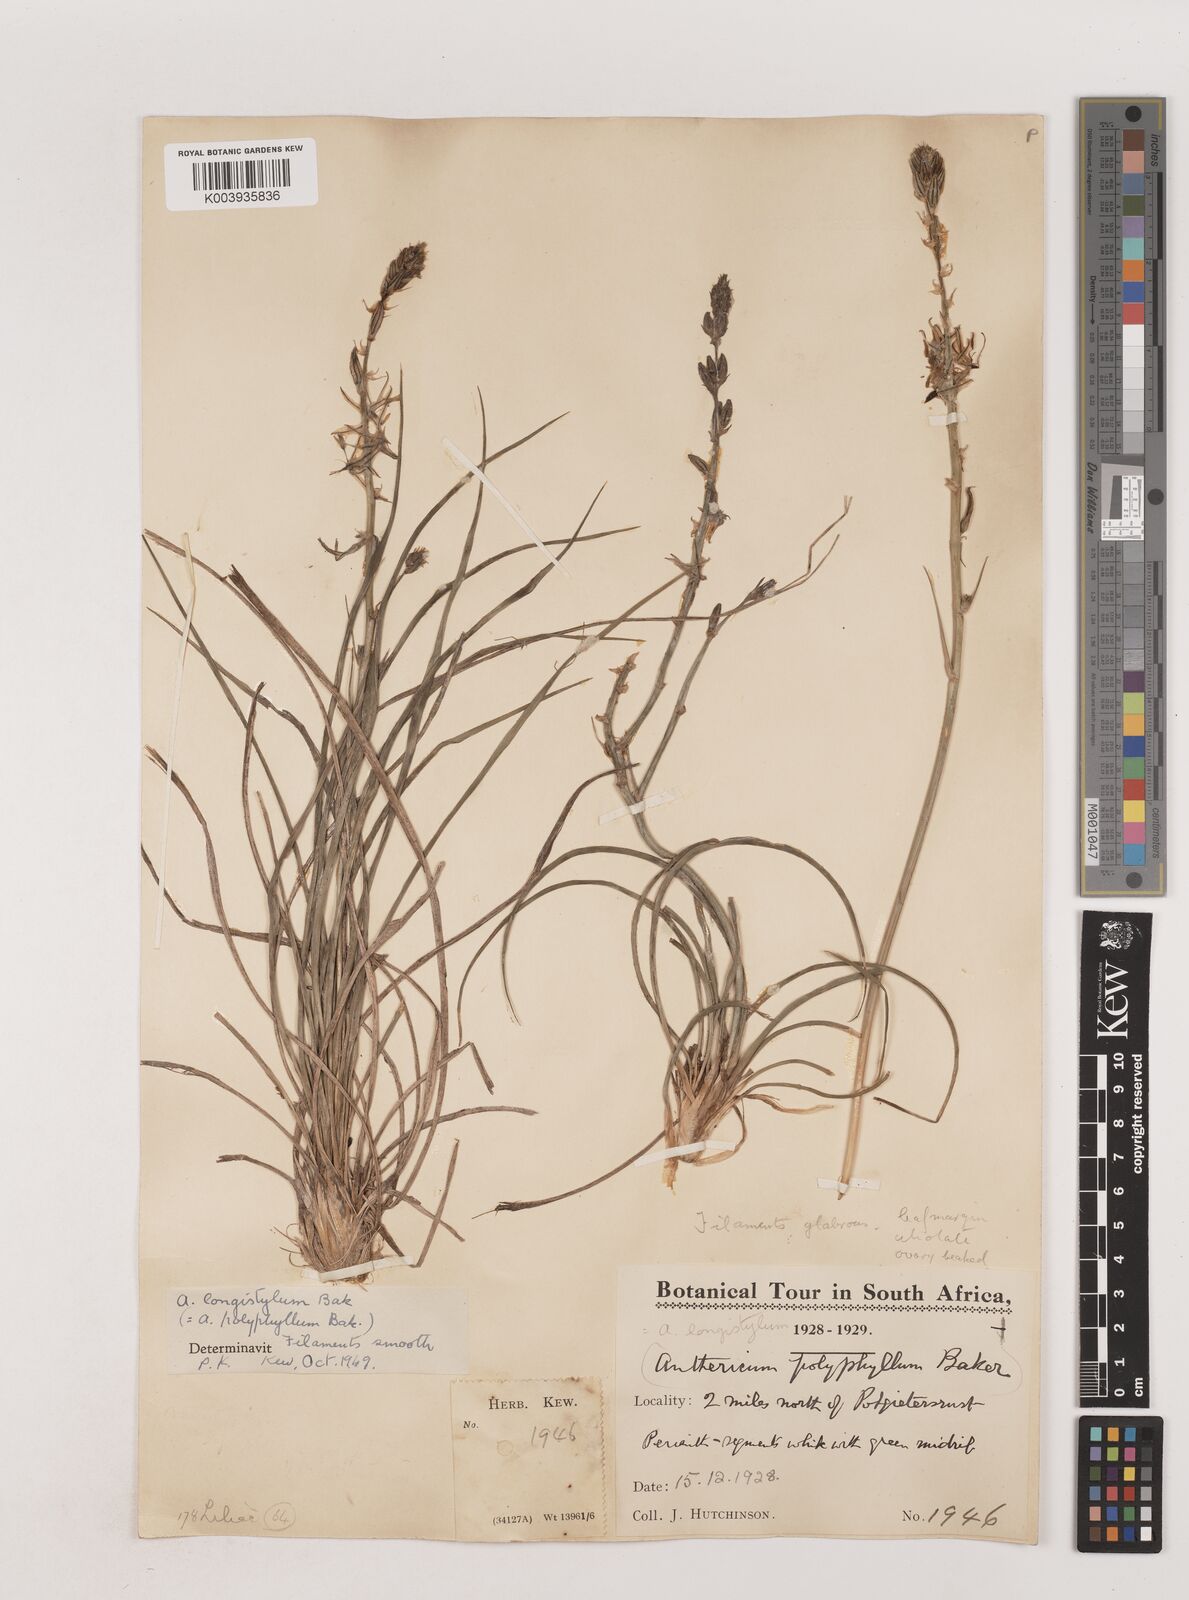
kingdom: Plantae
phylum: Tracheophyta
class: Liliopsida
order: Asparagales
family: Asparagaceae
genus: Chlorophytum
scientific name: Chlorophytum recurvifolium
